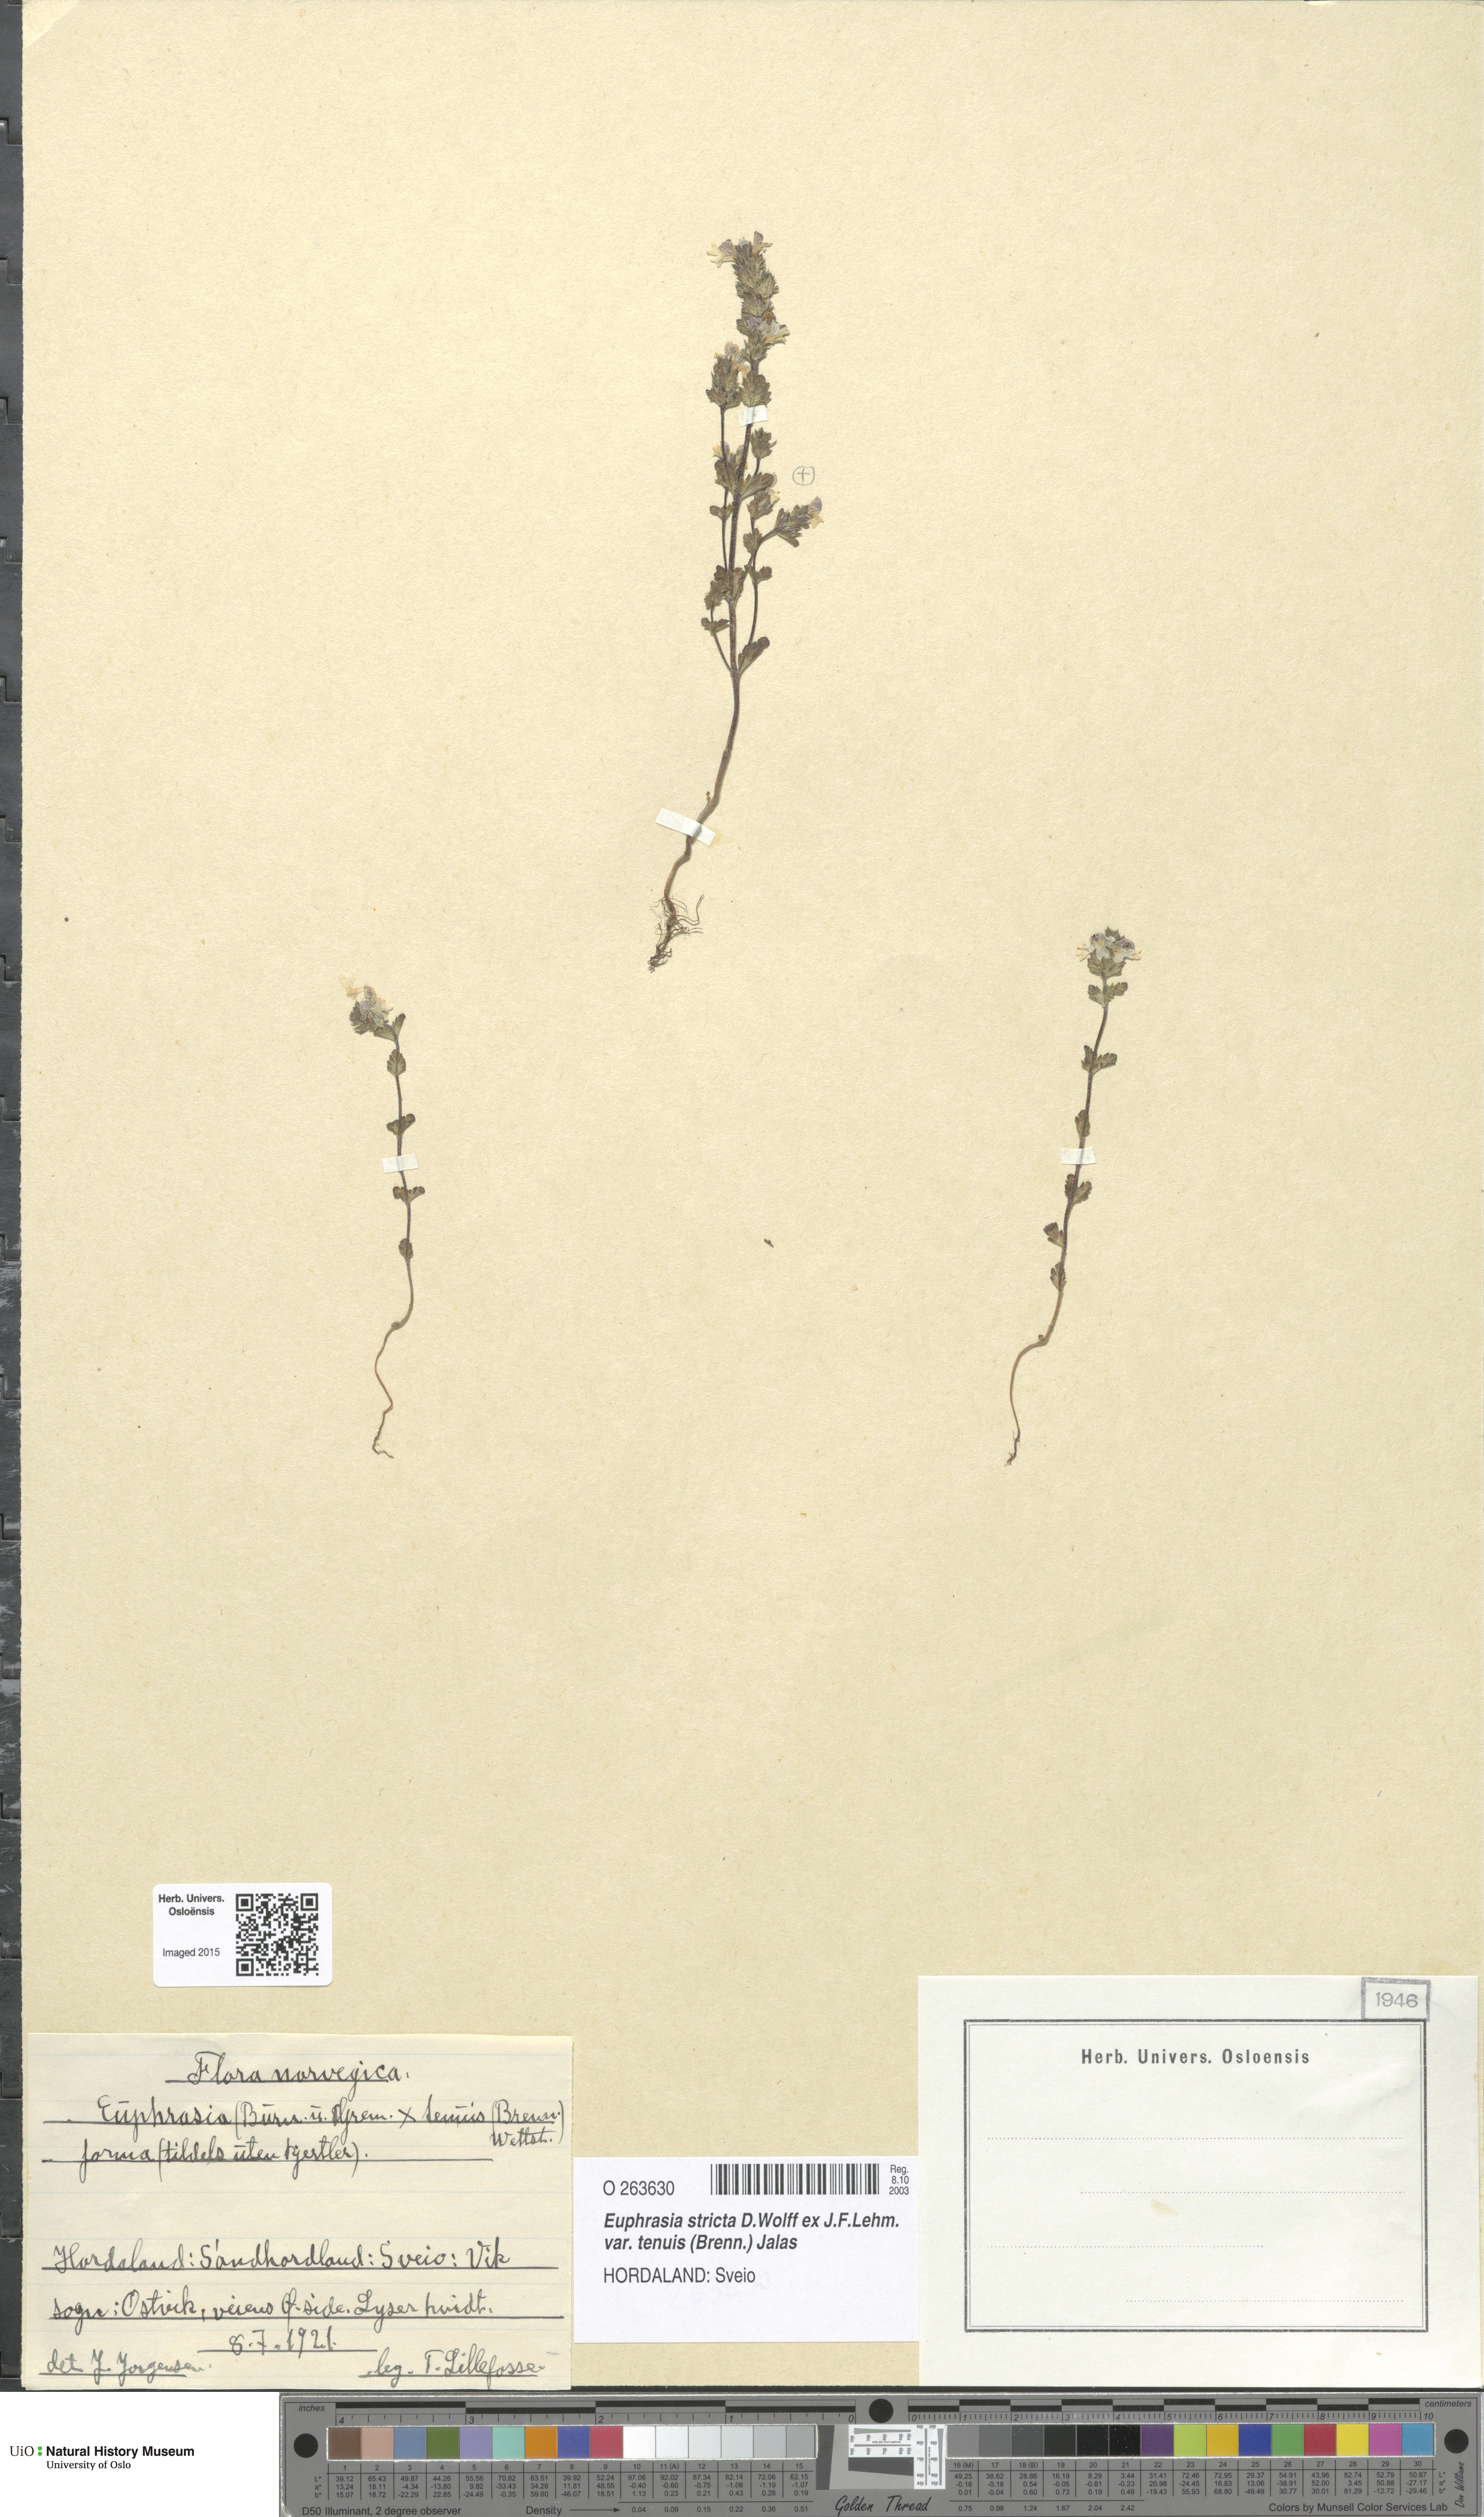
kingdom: Plantae
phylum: Tracheophyta
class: Magnoliopsida
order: Lamiales
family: Orobanchaceae
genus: Euphrasia
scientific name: Euphrasia vernalis
